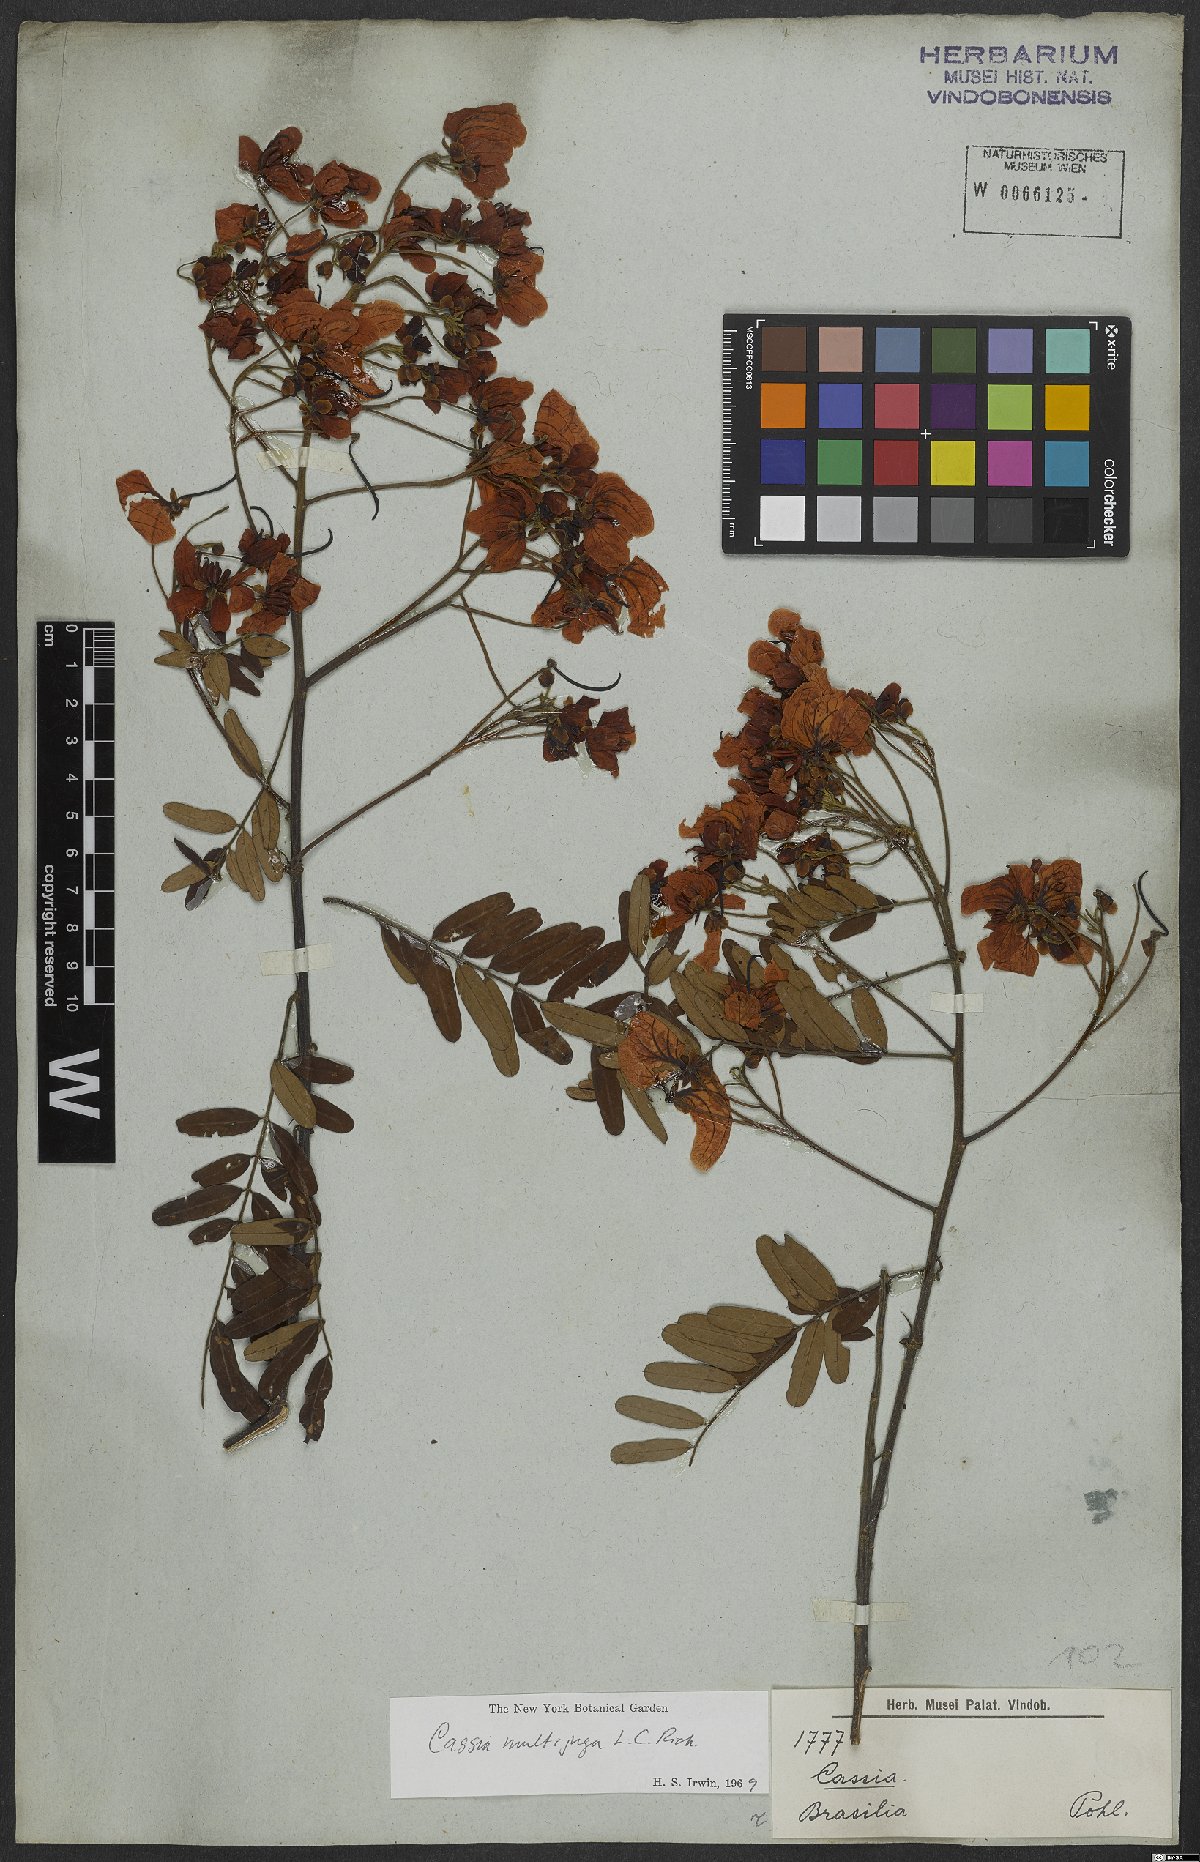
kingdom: Plantae
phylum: Tracheophyta
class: Magnoliopsida
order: Fabales
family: Fabaceae
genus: Senna
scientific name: Senna multijuga
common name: False sicklepod
